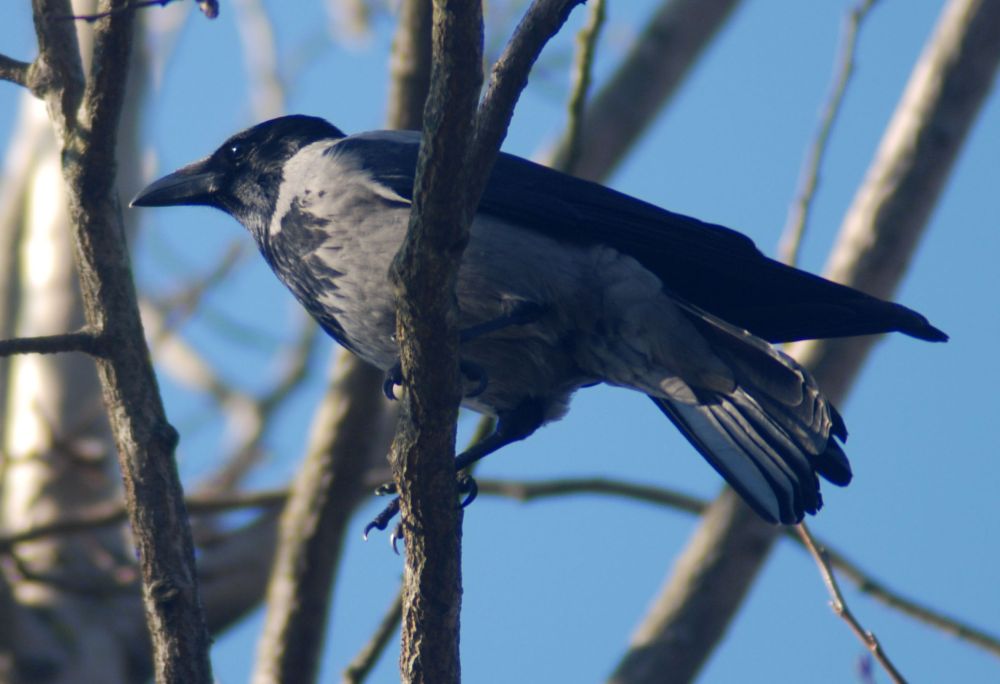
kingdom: Animalia
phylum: Chordata
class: Aves
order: Passeriformes
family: Corvidae
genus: Corvus
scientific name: Corvus cornix
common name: Hooded crow
